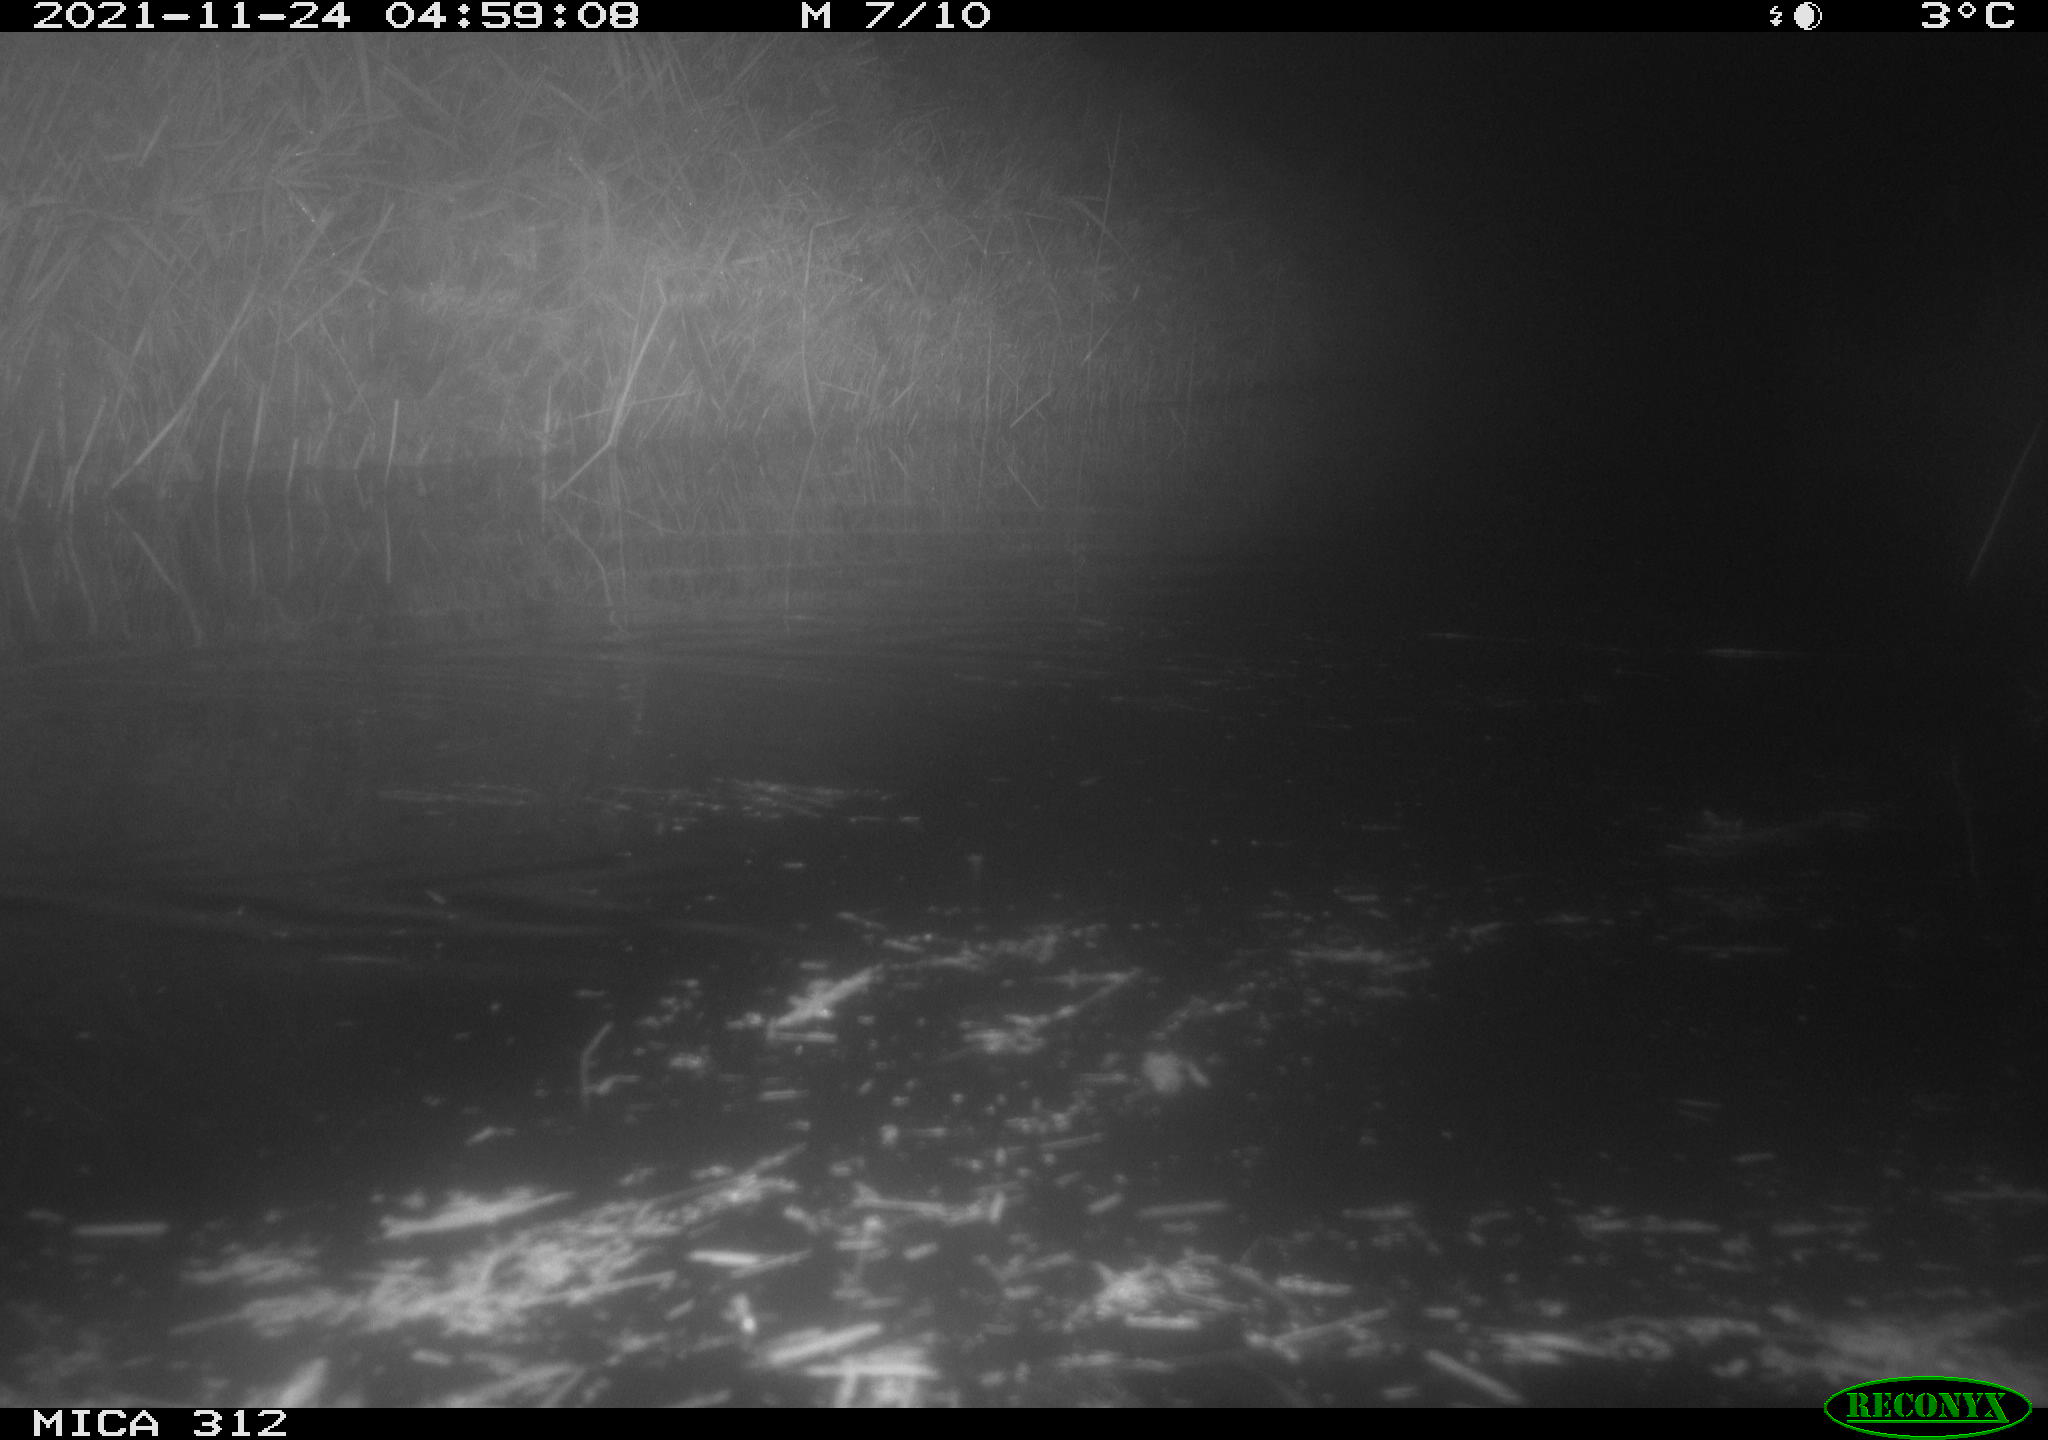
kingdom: Animalia
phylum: Chordata
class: Mammalia
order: Rodentia
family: Muridae
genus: Rattus
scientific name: Rattus norvegicus
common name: Brown rat
